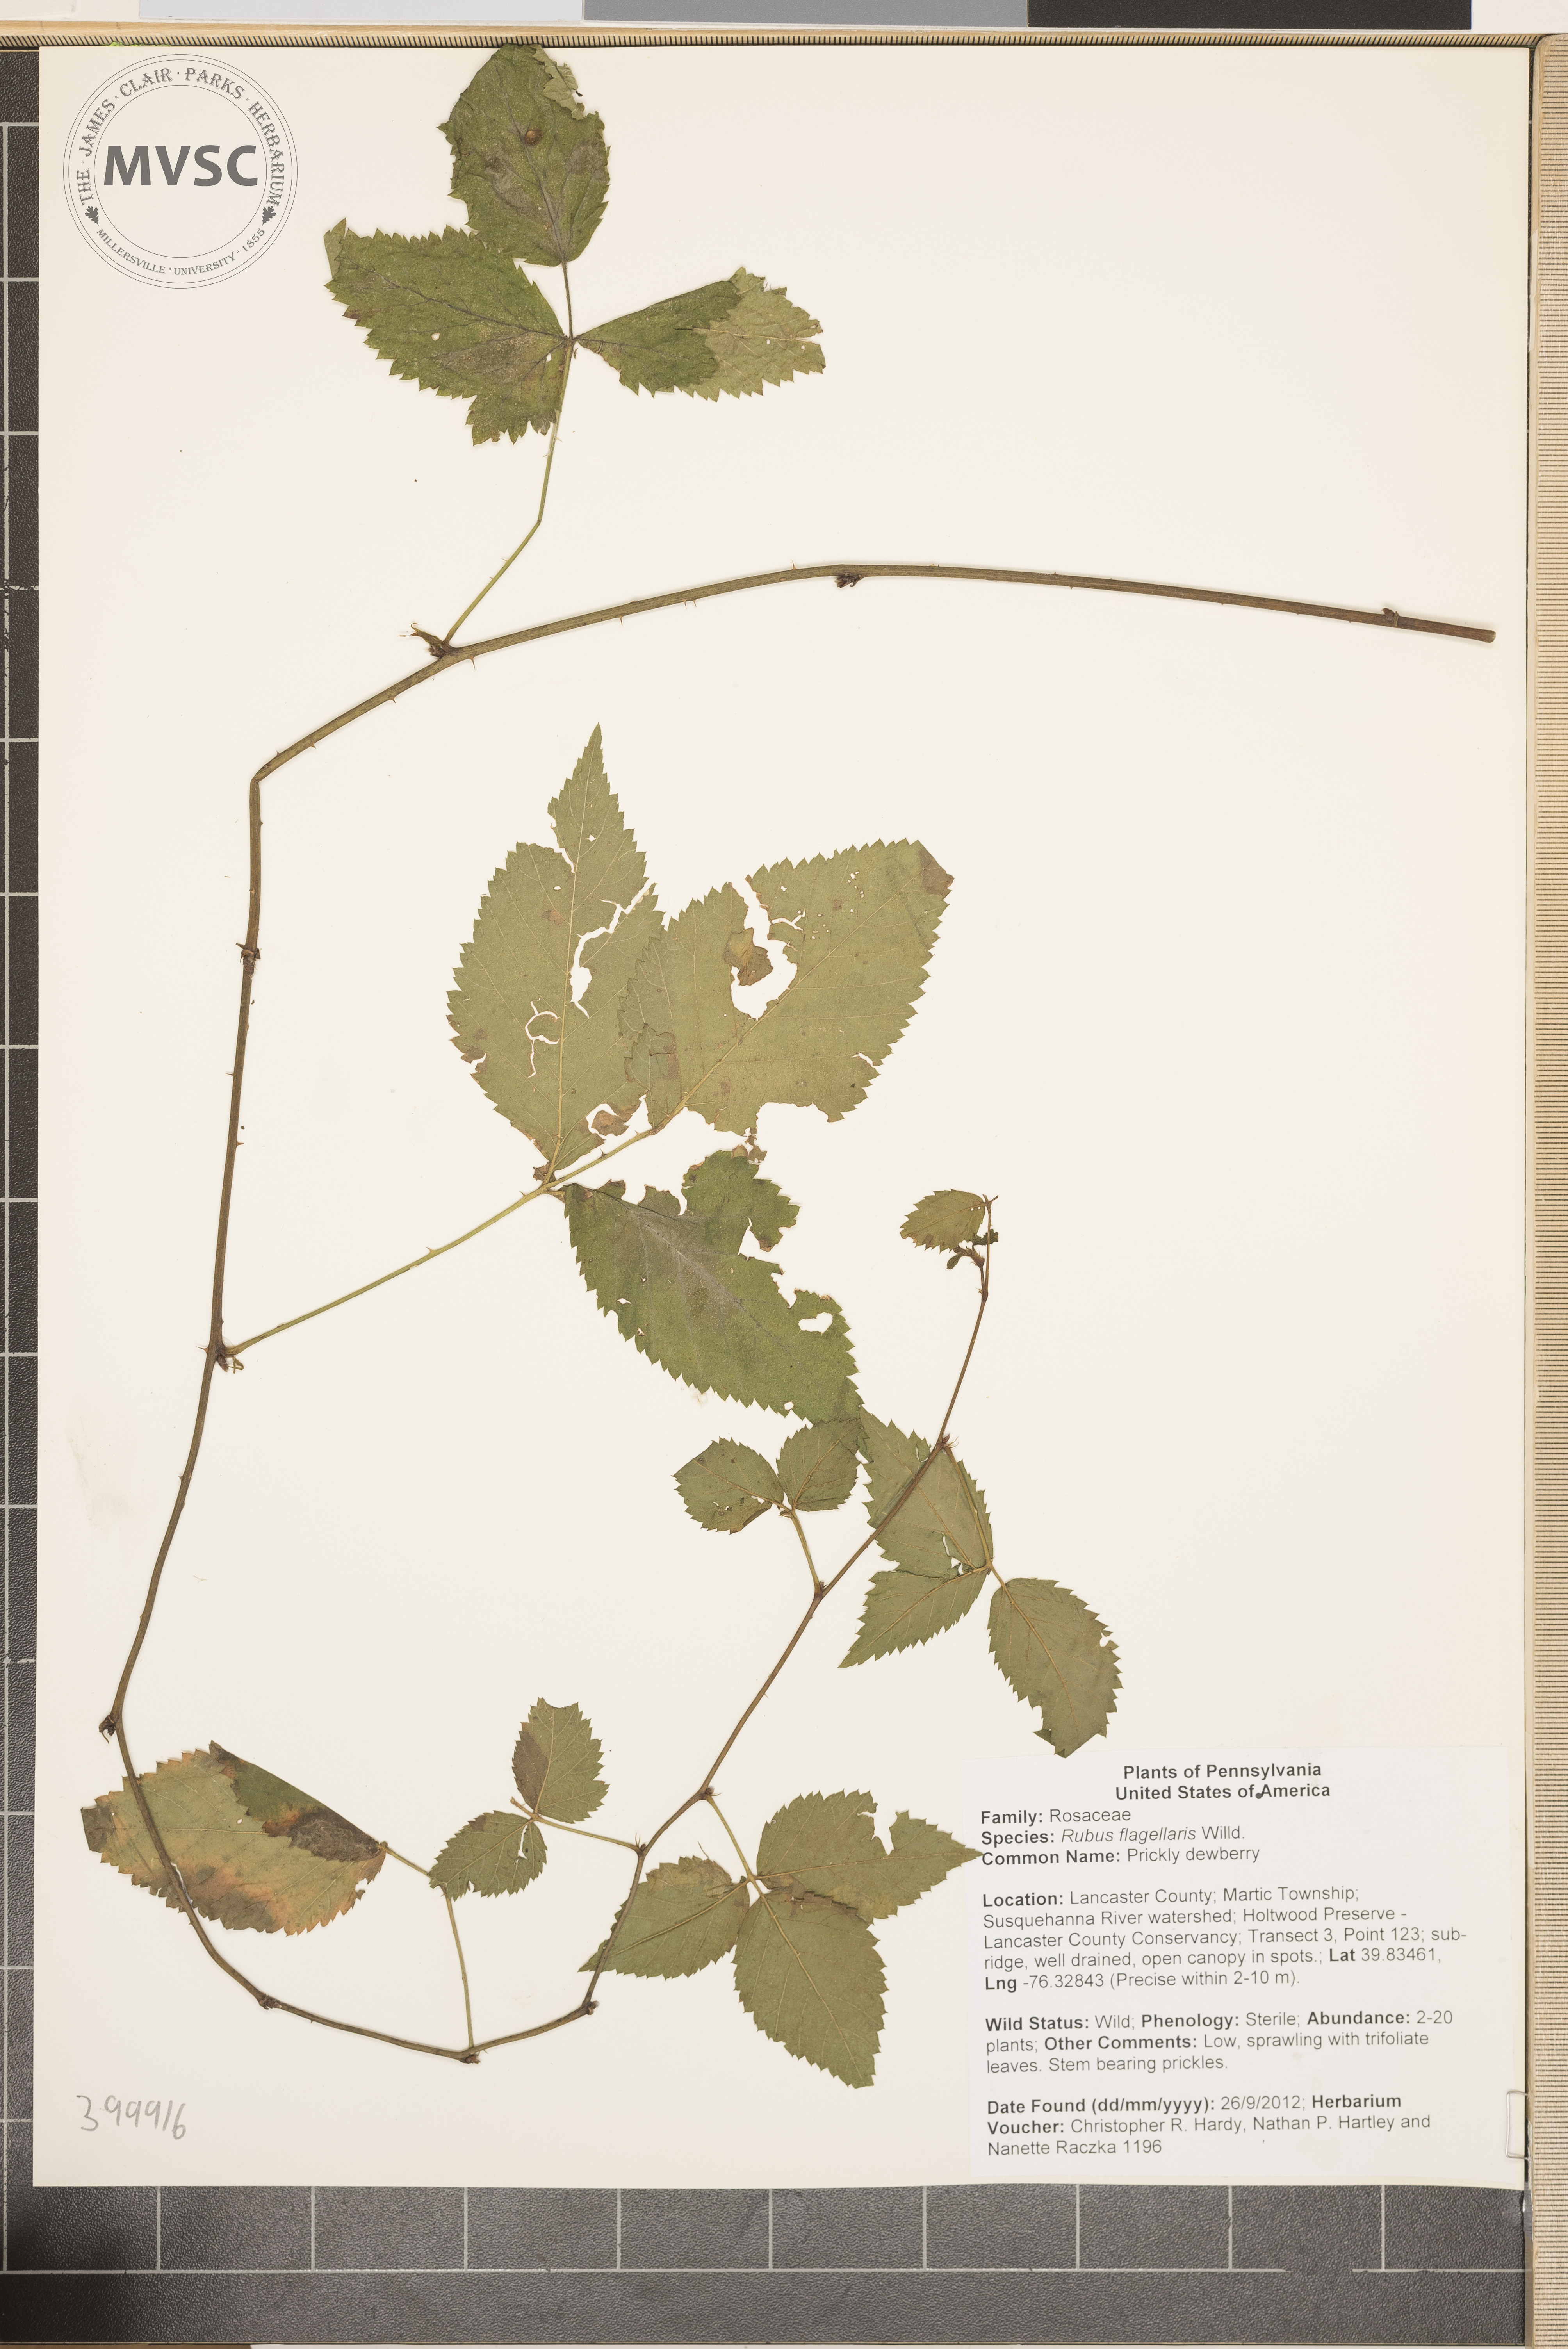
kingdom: Plantae
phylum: Tracheophyta
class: Magnoliopsida
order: Rosales
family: Rosaceae
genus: Rubus
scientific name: Rubus flagellaris
